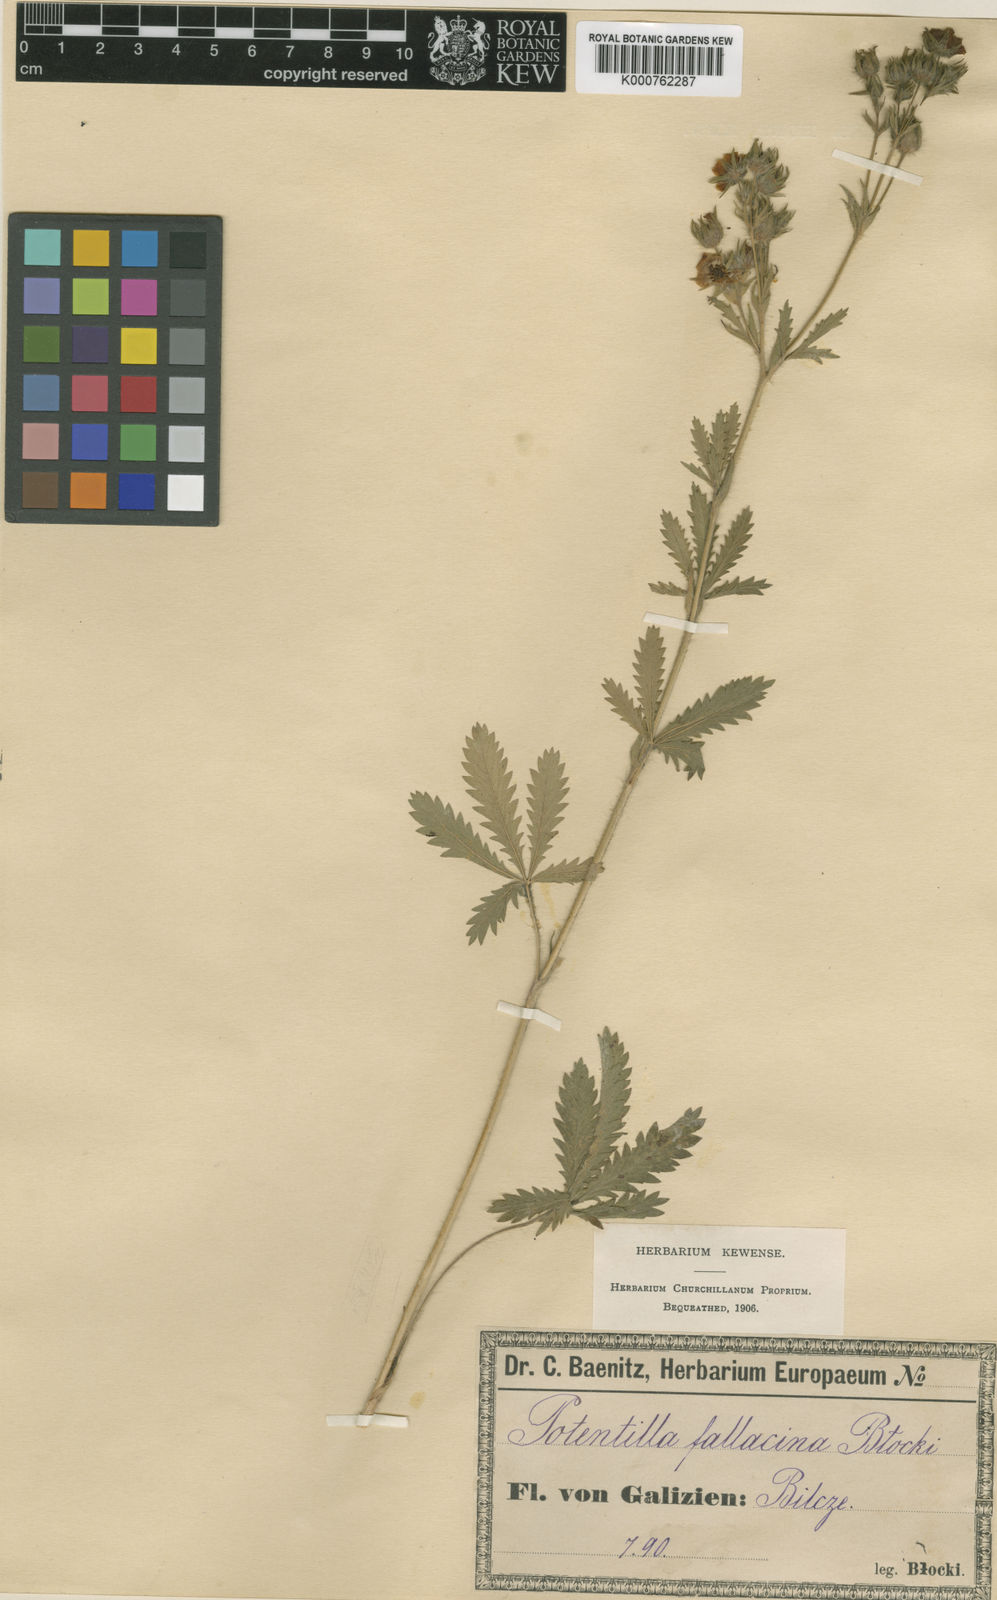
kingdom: Plantae
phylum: Tracheophyta
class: Magnoliopsida
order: Rosales
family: Rosaceae
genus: Potentilla
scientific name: Potentilla recta
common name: Sulphur cinquefoil
